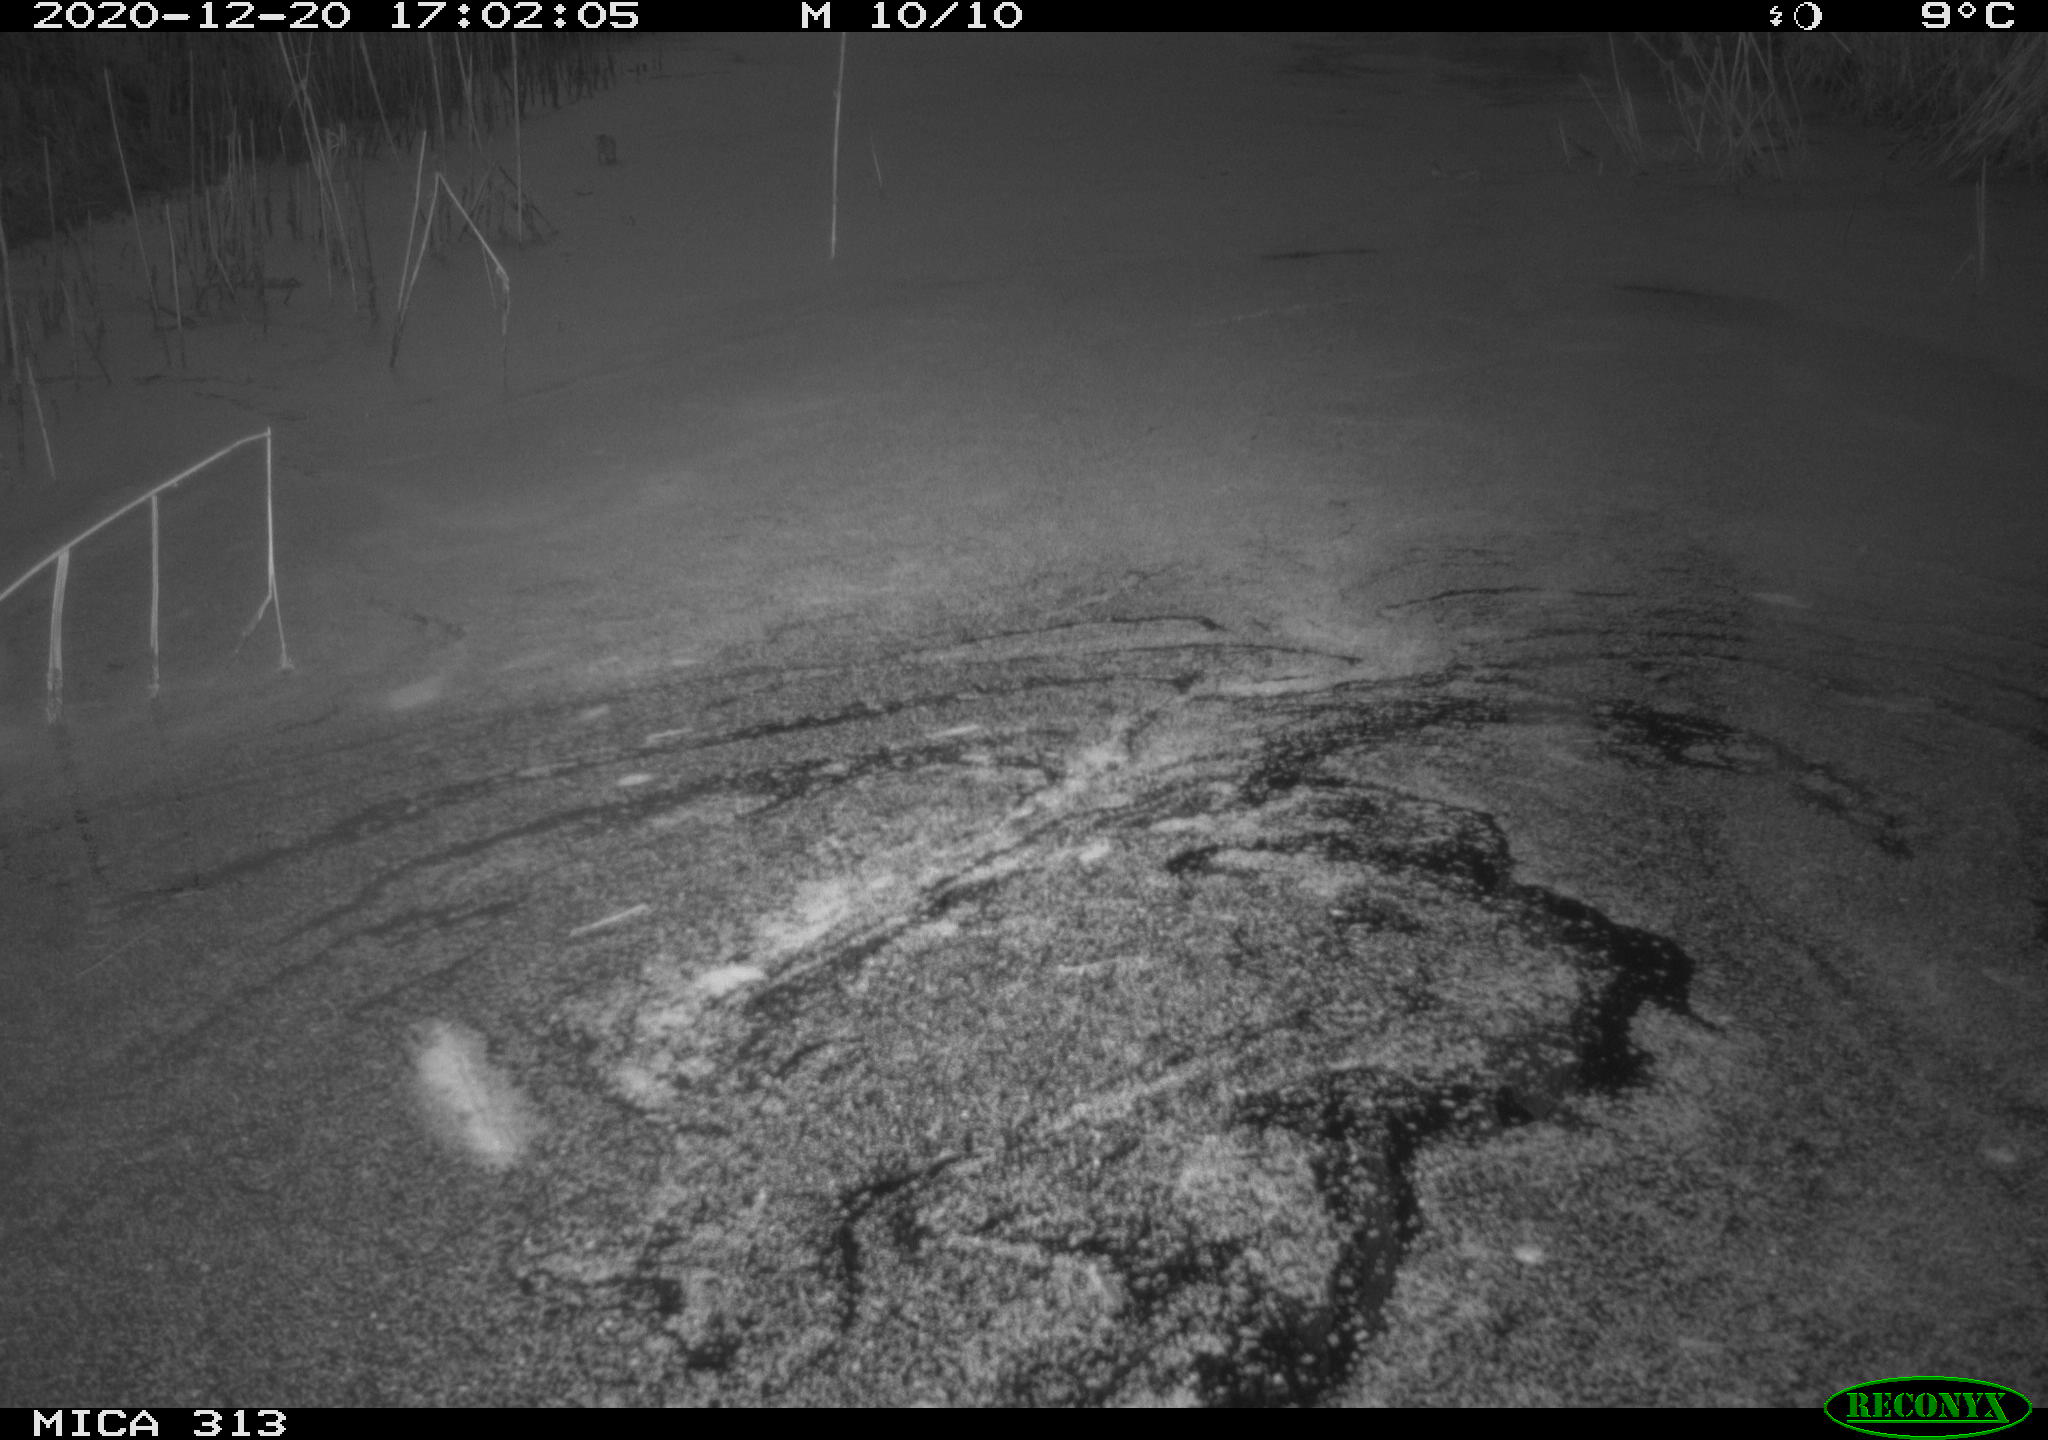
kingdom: Animalia
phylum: Chordata
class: Aves
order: Gruiformes
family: Rallidae
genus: Gallinula
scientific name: Gallinula chloropus
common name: Common moorhen
